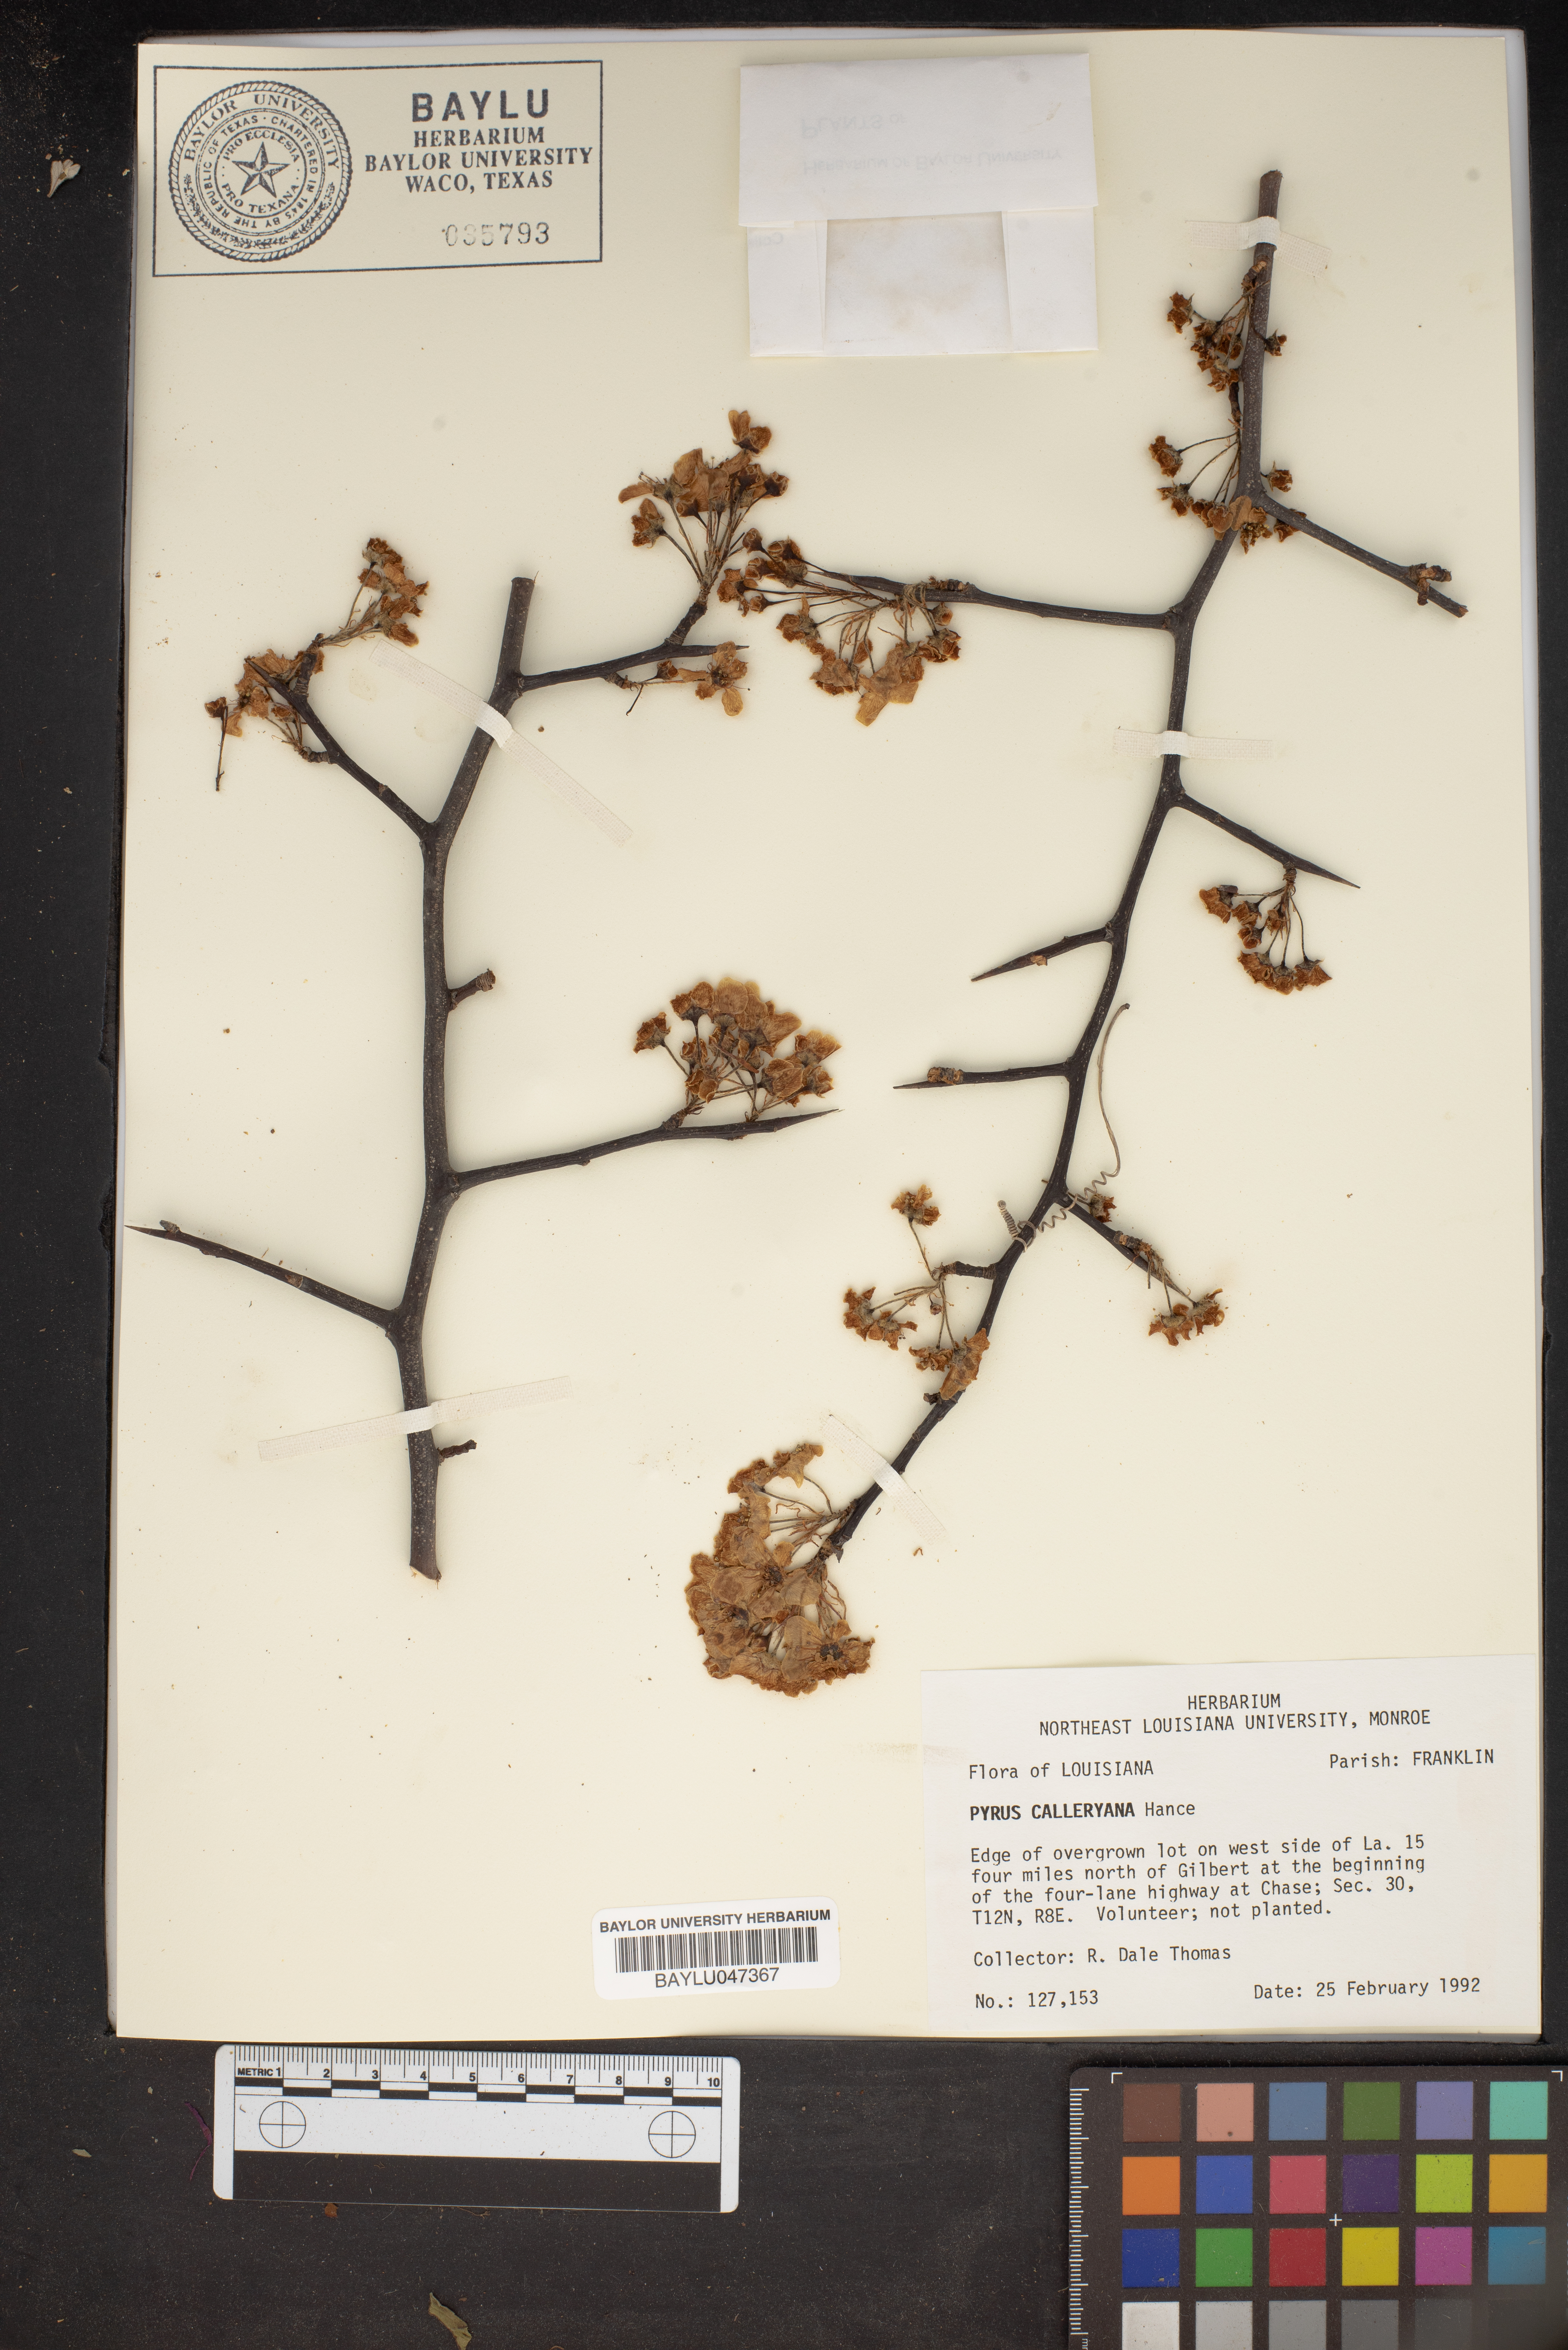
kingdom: Plantae
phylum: Tracheophyta
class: Magnoliopsida
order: Rosales
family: Rosaceae
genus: Pyrus
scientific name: Pyrus calleryana
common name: Callery pear
